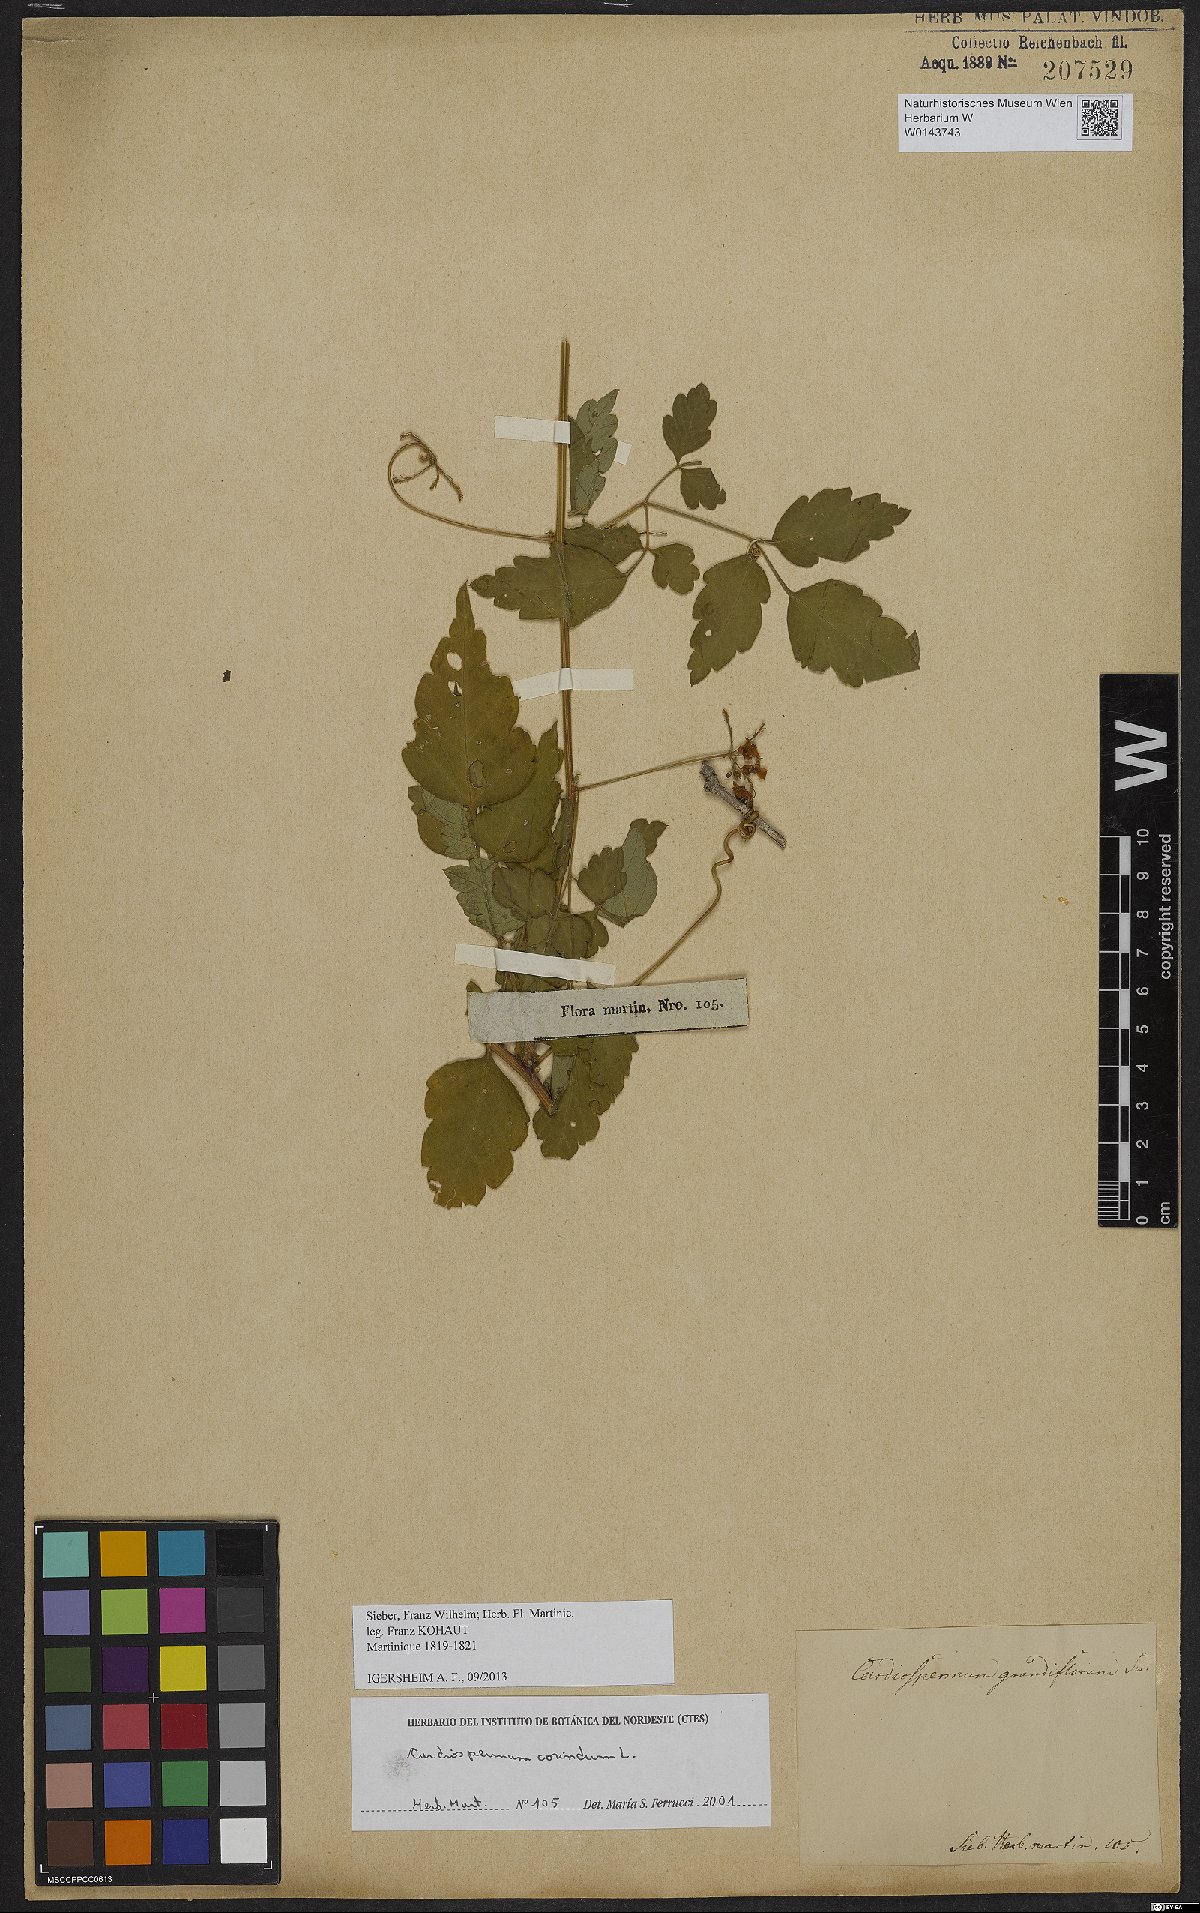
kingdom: Plantae
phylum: Tracheophyta
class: Magnoliopsida
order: Sapindales
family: Sapindaceae
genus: Cardiospermum
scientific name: Cardiospermum corindum
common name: Faux persil
